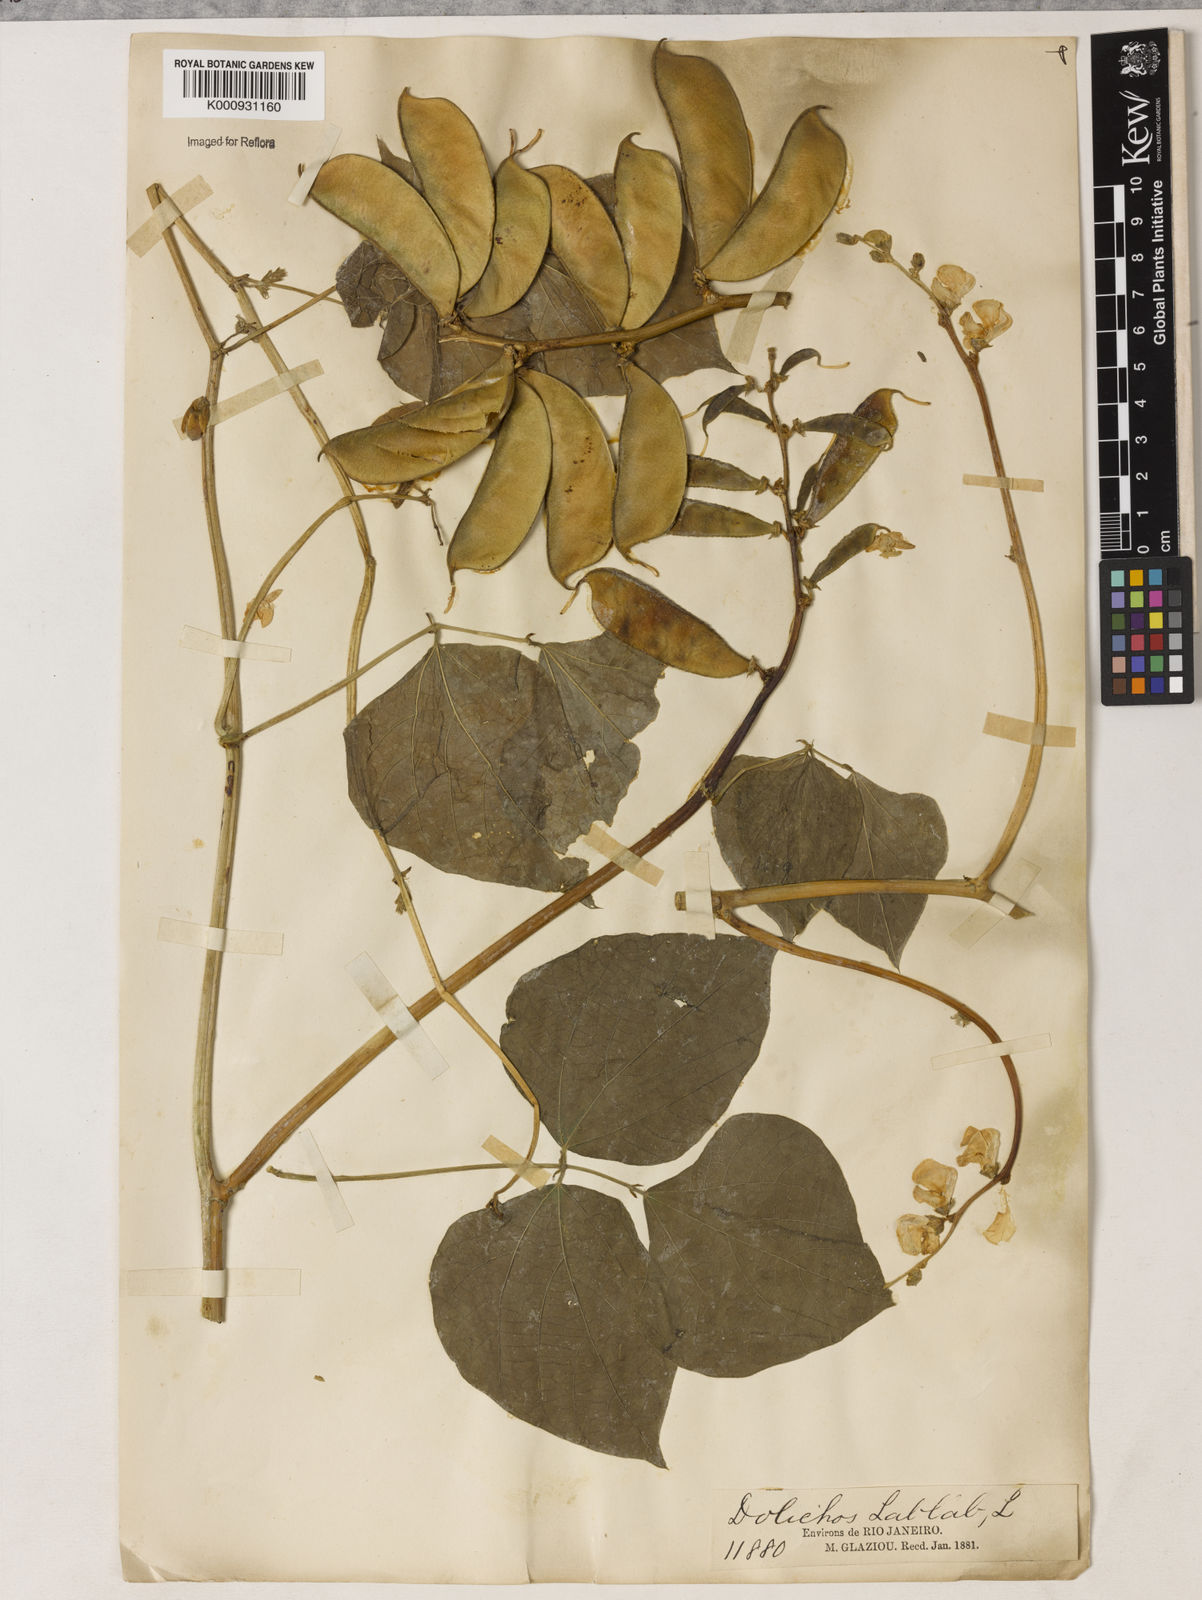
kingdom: Plantae
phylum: Tracheophyta
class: Magnoliopsida
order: Fabales
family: Fabaceae
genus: Lablab
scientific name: Lablab purpureus
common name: Lablab-bean
